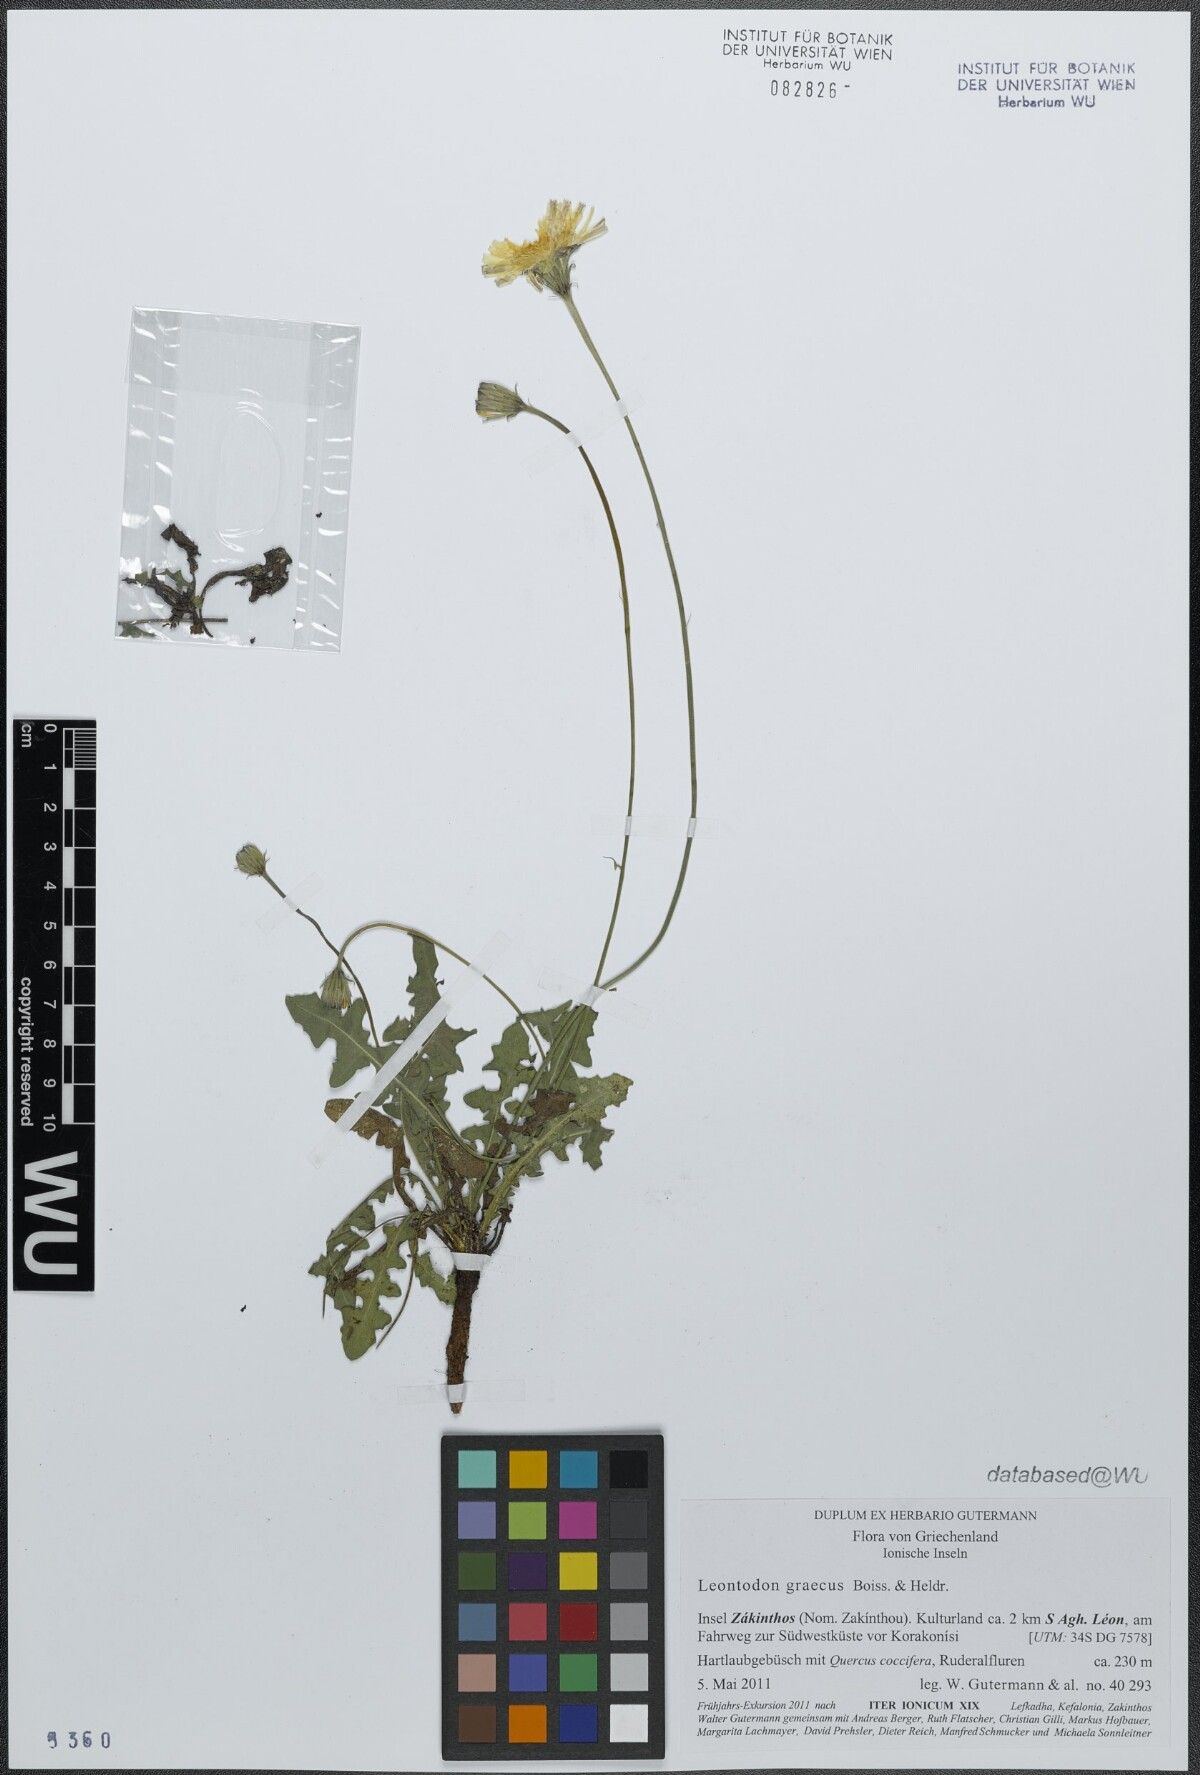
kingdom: Plantae
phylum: Tracheophyta
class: Magnoliopsida
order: Asterales
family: Asteraceae
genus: Leontodon
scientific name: Leontodon graecus
